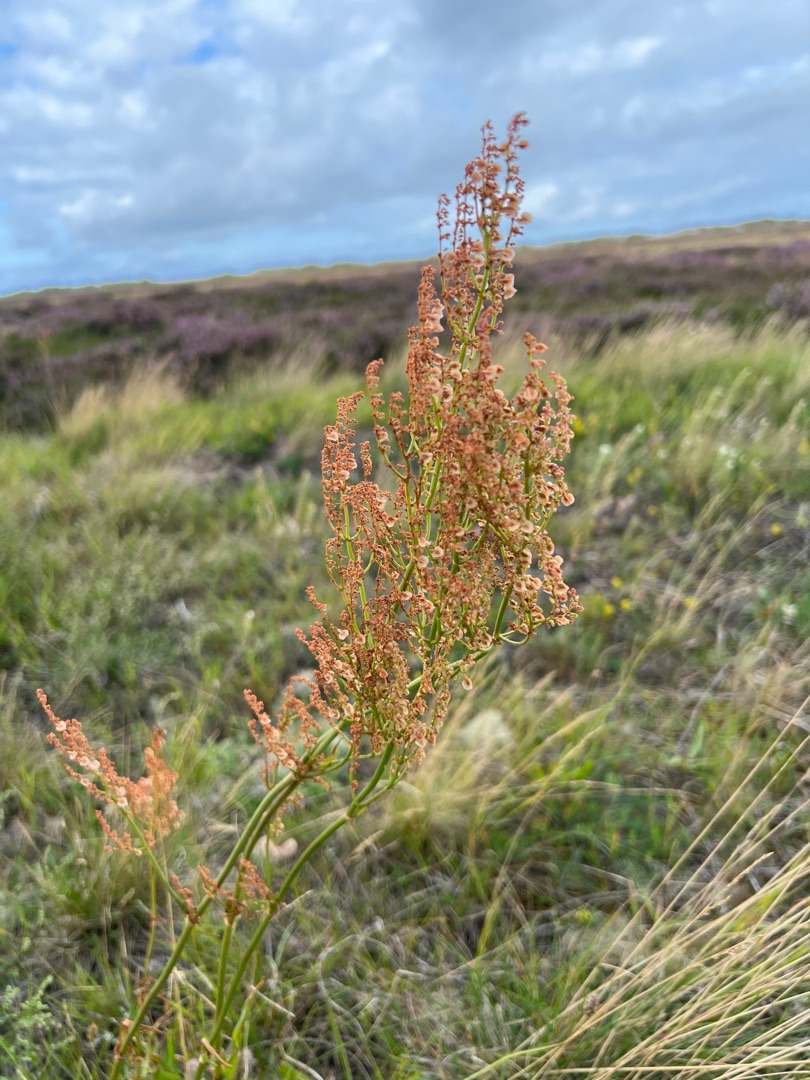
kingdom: Plantae
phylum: Tracheophyta
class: Magnoliopsida
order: Caryophyllales
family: Polygonaceae
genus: Rumex
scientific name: Rumex thyrsiflorus
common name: Dusk-syre
